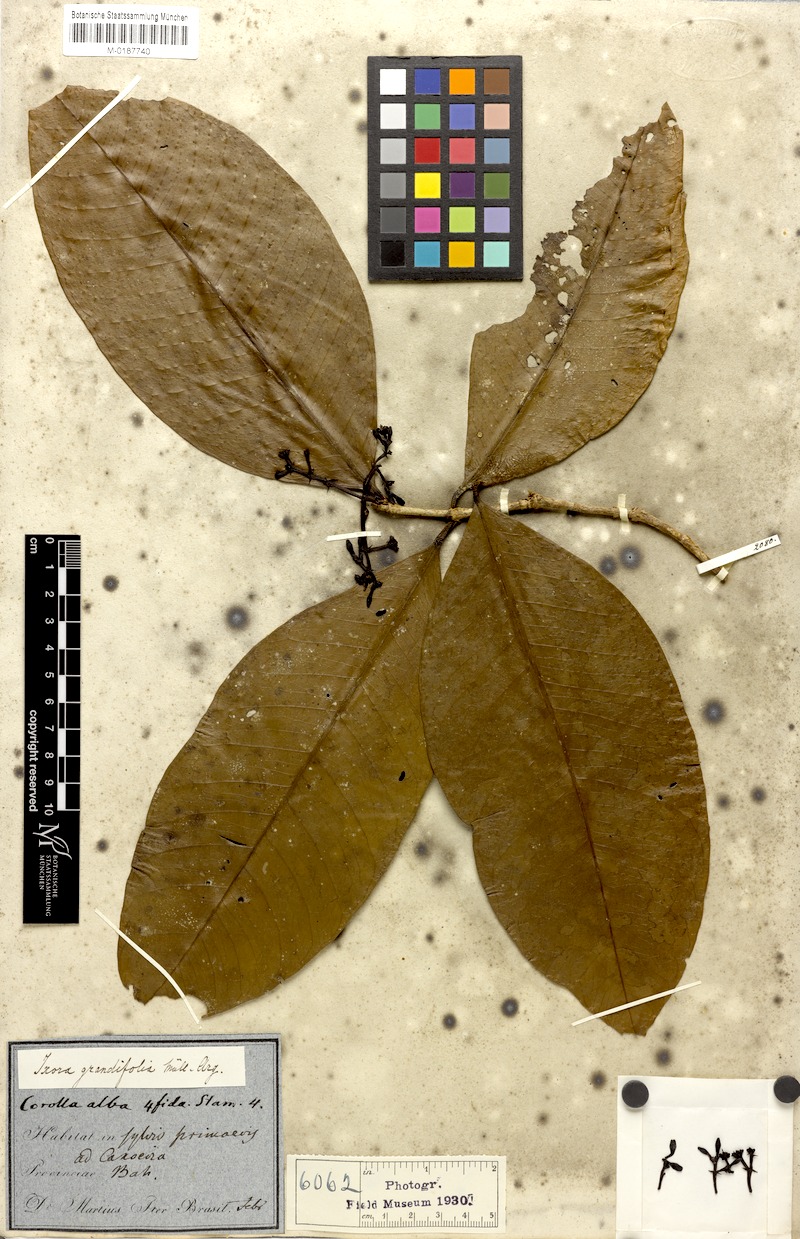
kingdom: Plantae
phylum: Tracheophyta
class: Magnoliopsida
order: Gentianales
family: Rubiaceae
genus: Ixora
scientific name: Ixora muelleri
